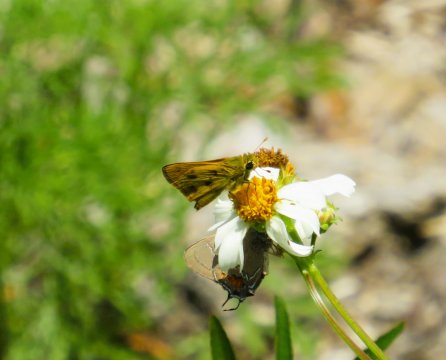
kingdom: Animalia
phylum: Arthropoda
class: Insecta
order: Lepidoptera
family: Hesperiidae
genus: Polites
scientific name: Polites vibex
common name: Whirlabout
